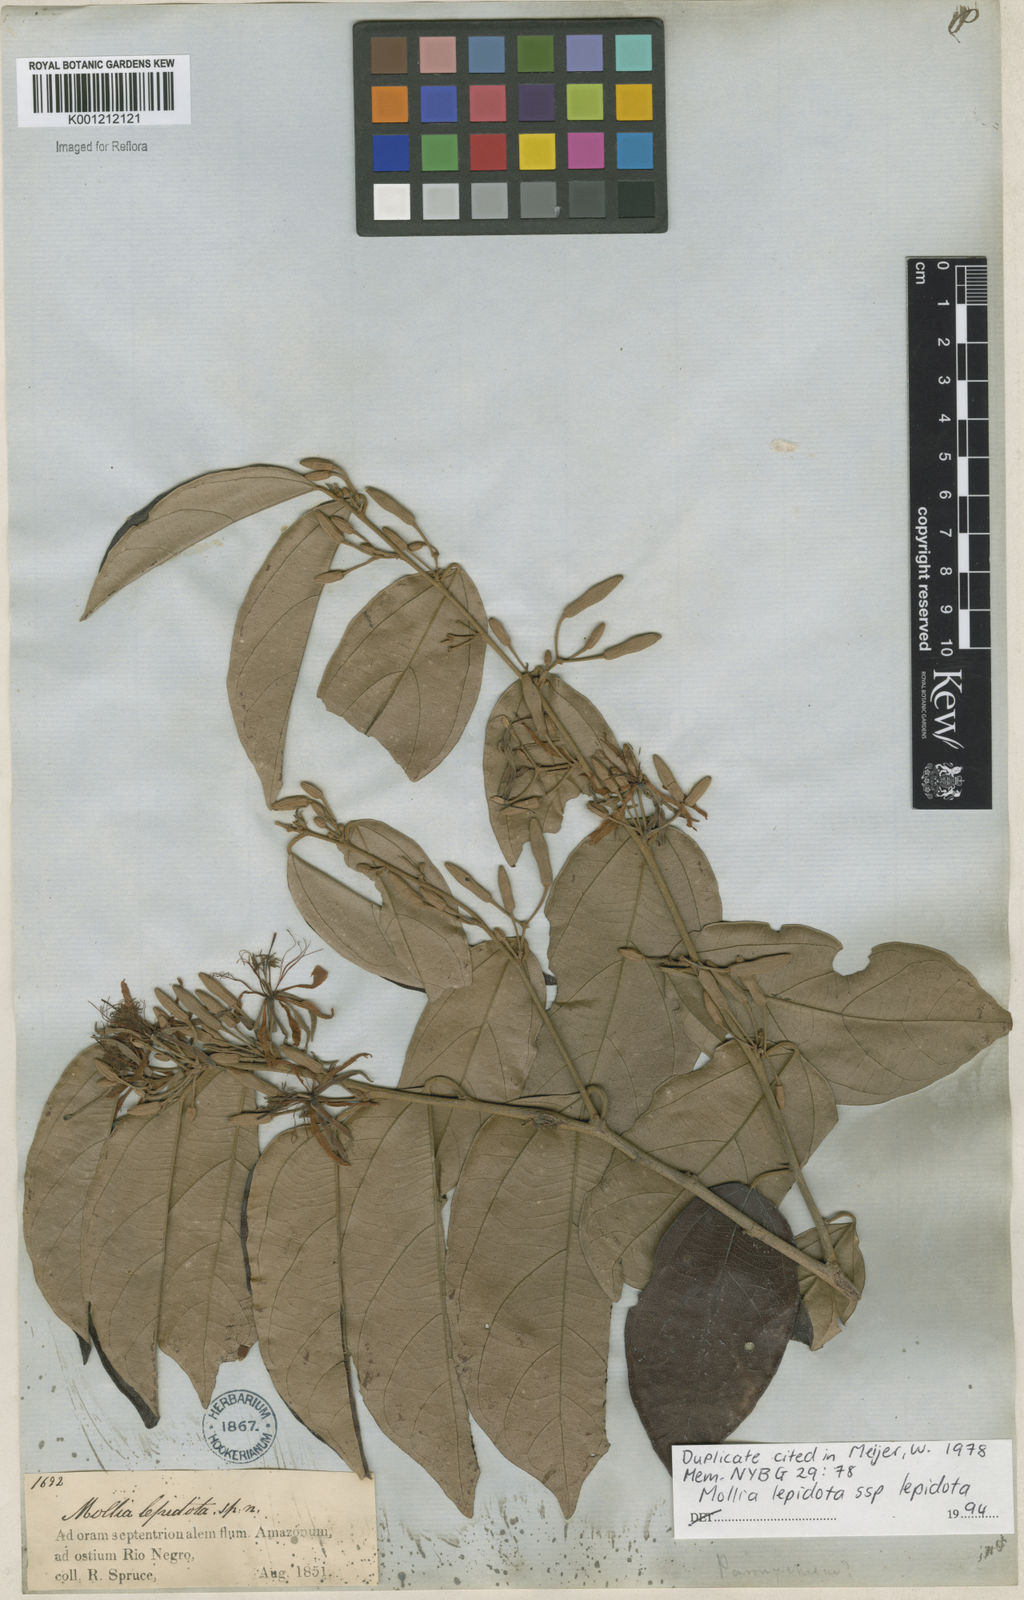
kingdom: Plantae
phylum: Tracheophyta
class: Magnoliopsida
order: Malvales
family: Malvaceae
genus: Mollia
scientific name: Mollia lepidota
